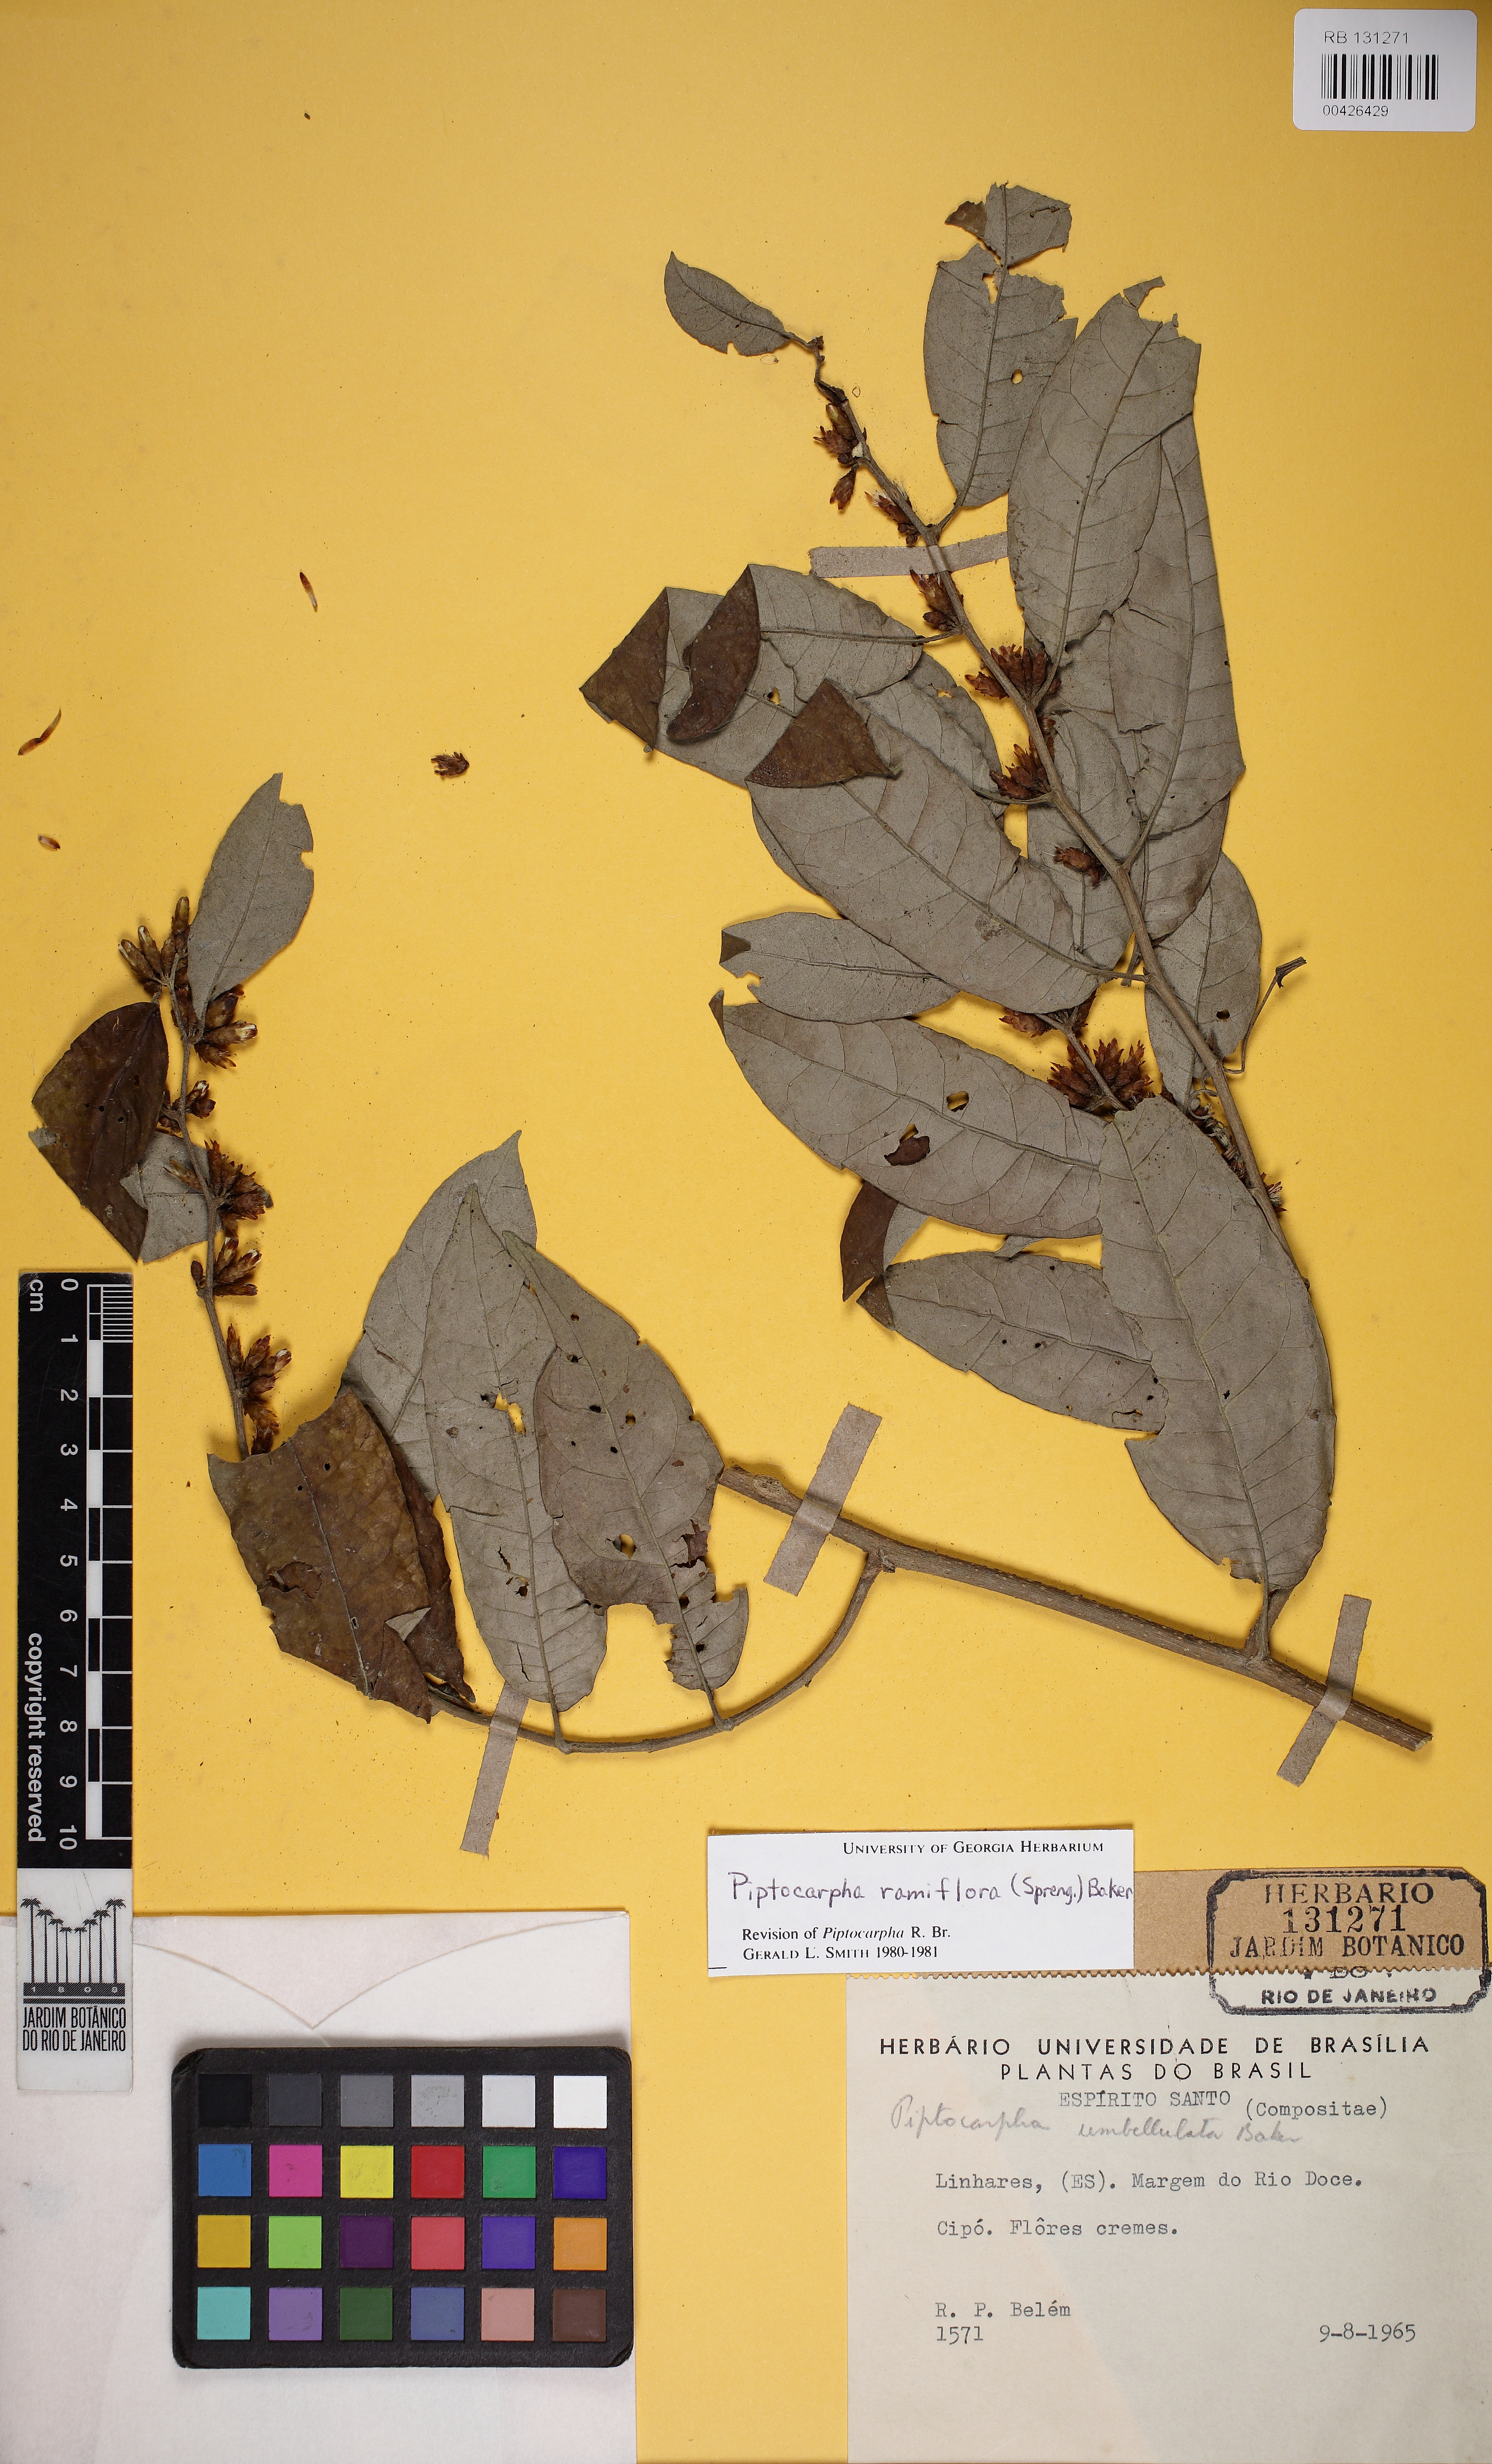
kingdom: Plantae
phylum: Tracheophyta
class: Magnoliopsida
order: Asterales
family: Asteraceae
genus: Piptocarpha
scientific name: Piptocarpha ramiflora
